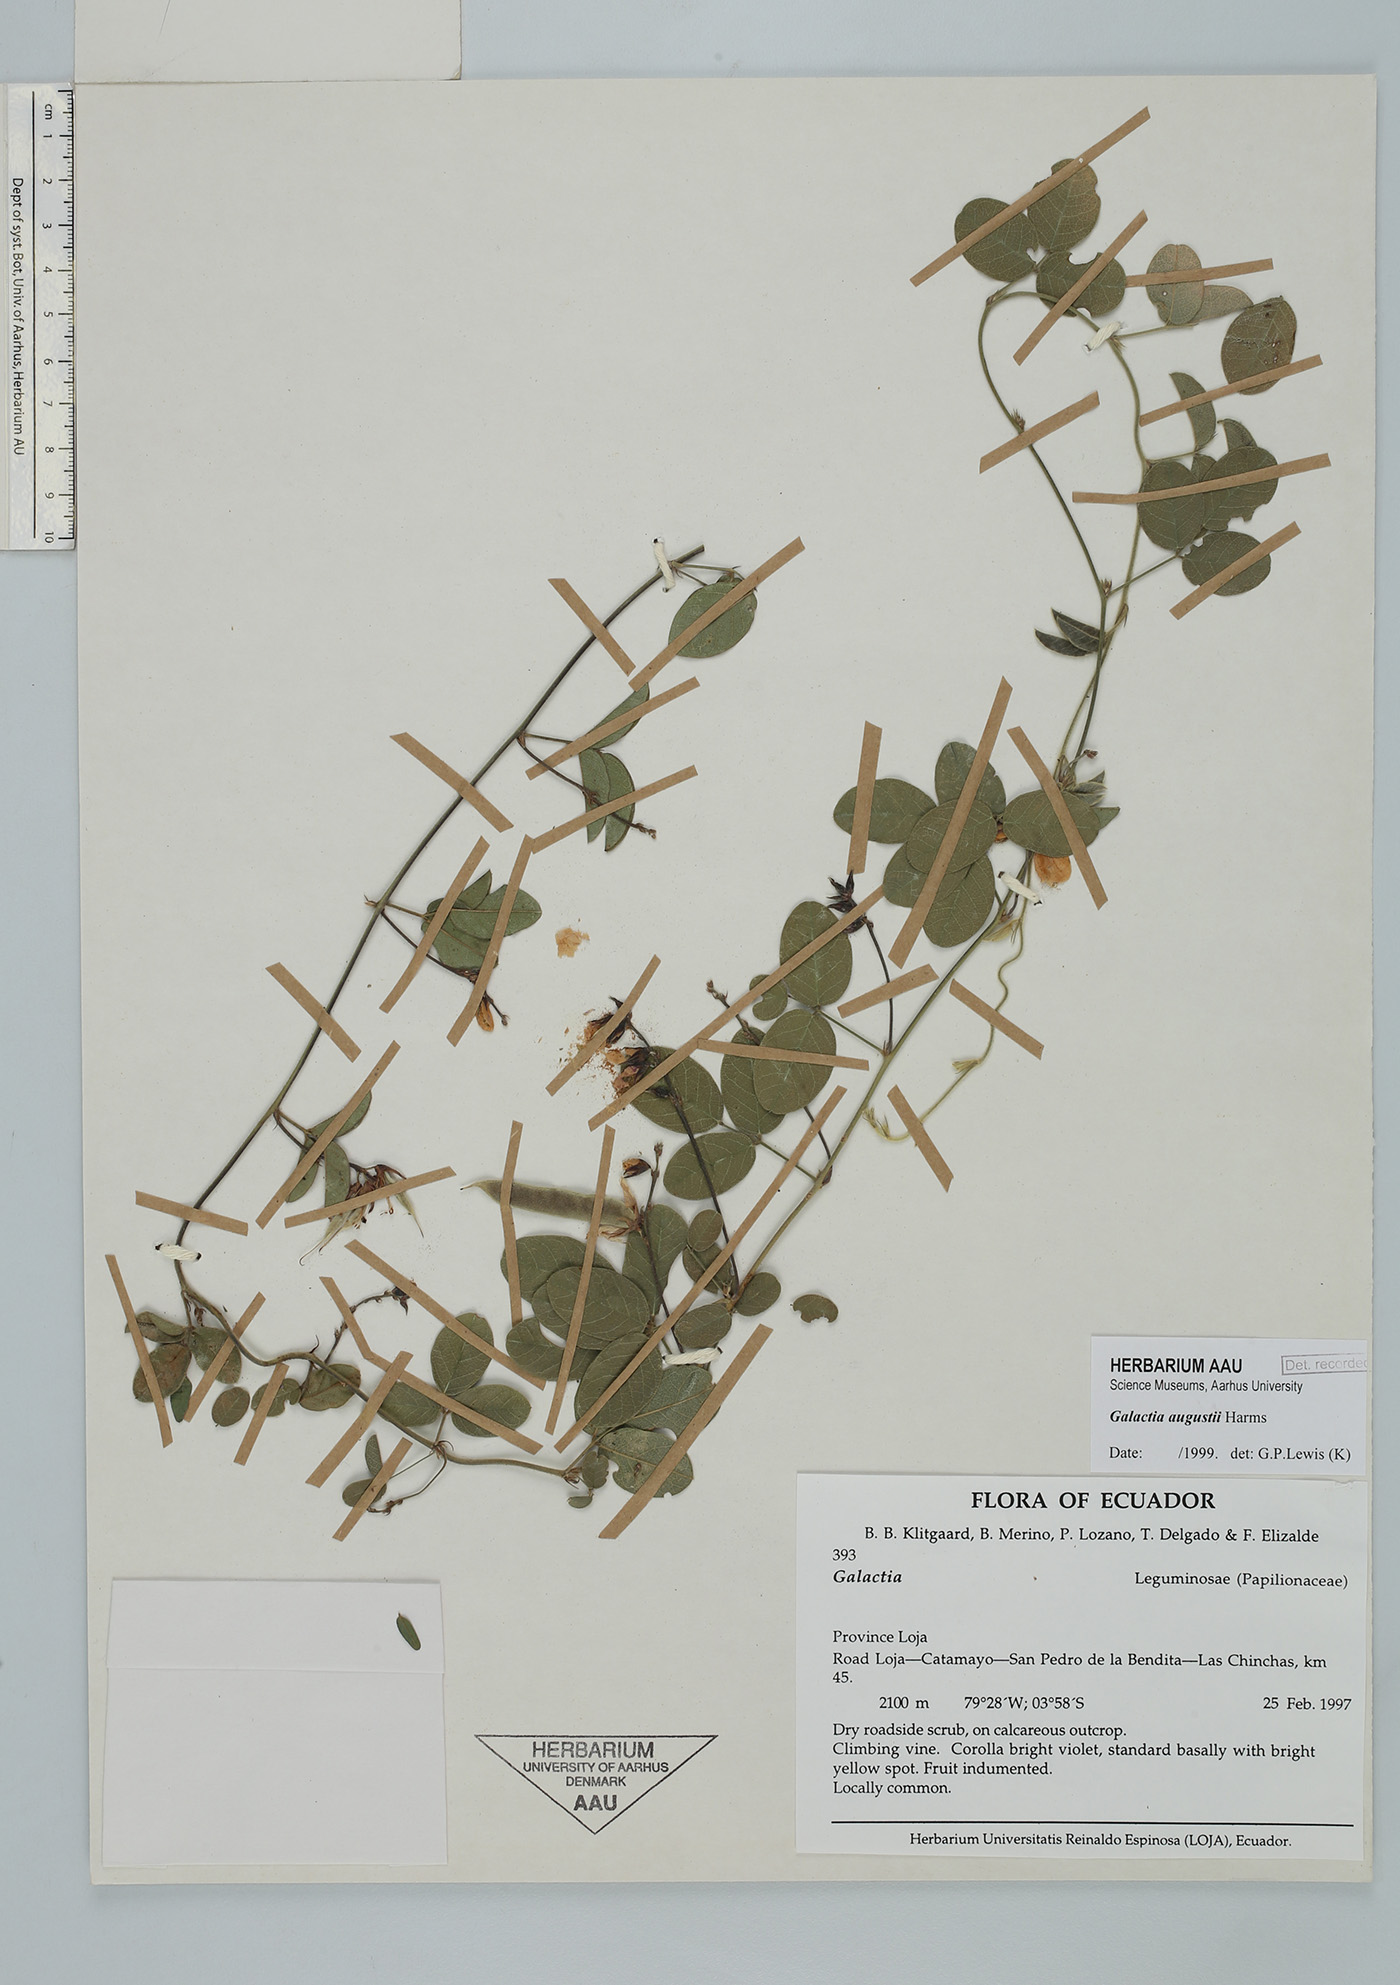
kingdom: Plantae
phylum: Tracheophyta
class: Magnoliopsida
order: Fabales
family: Fabaceae
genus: Galactia
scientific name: Galactia augusti
